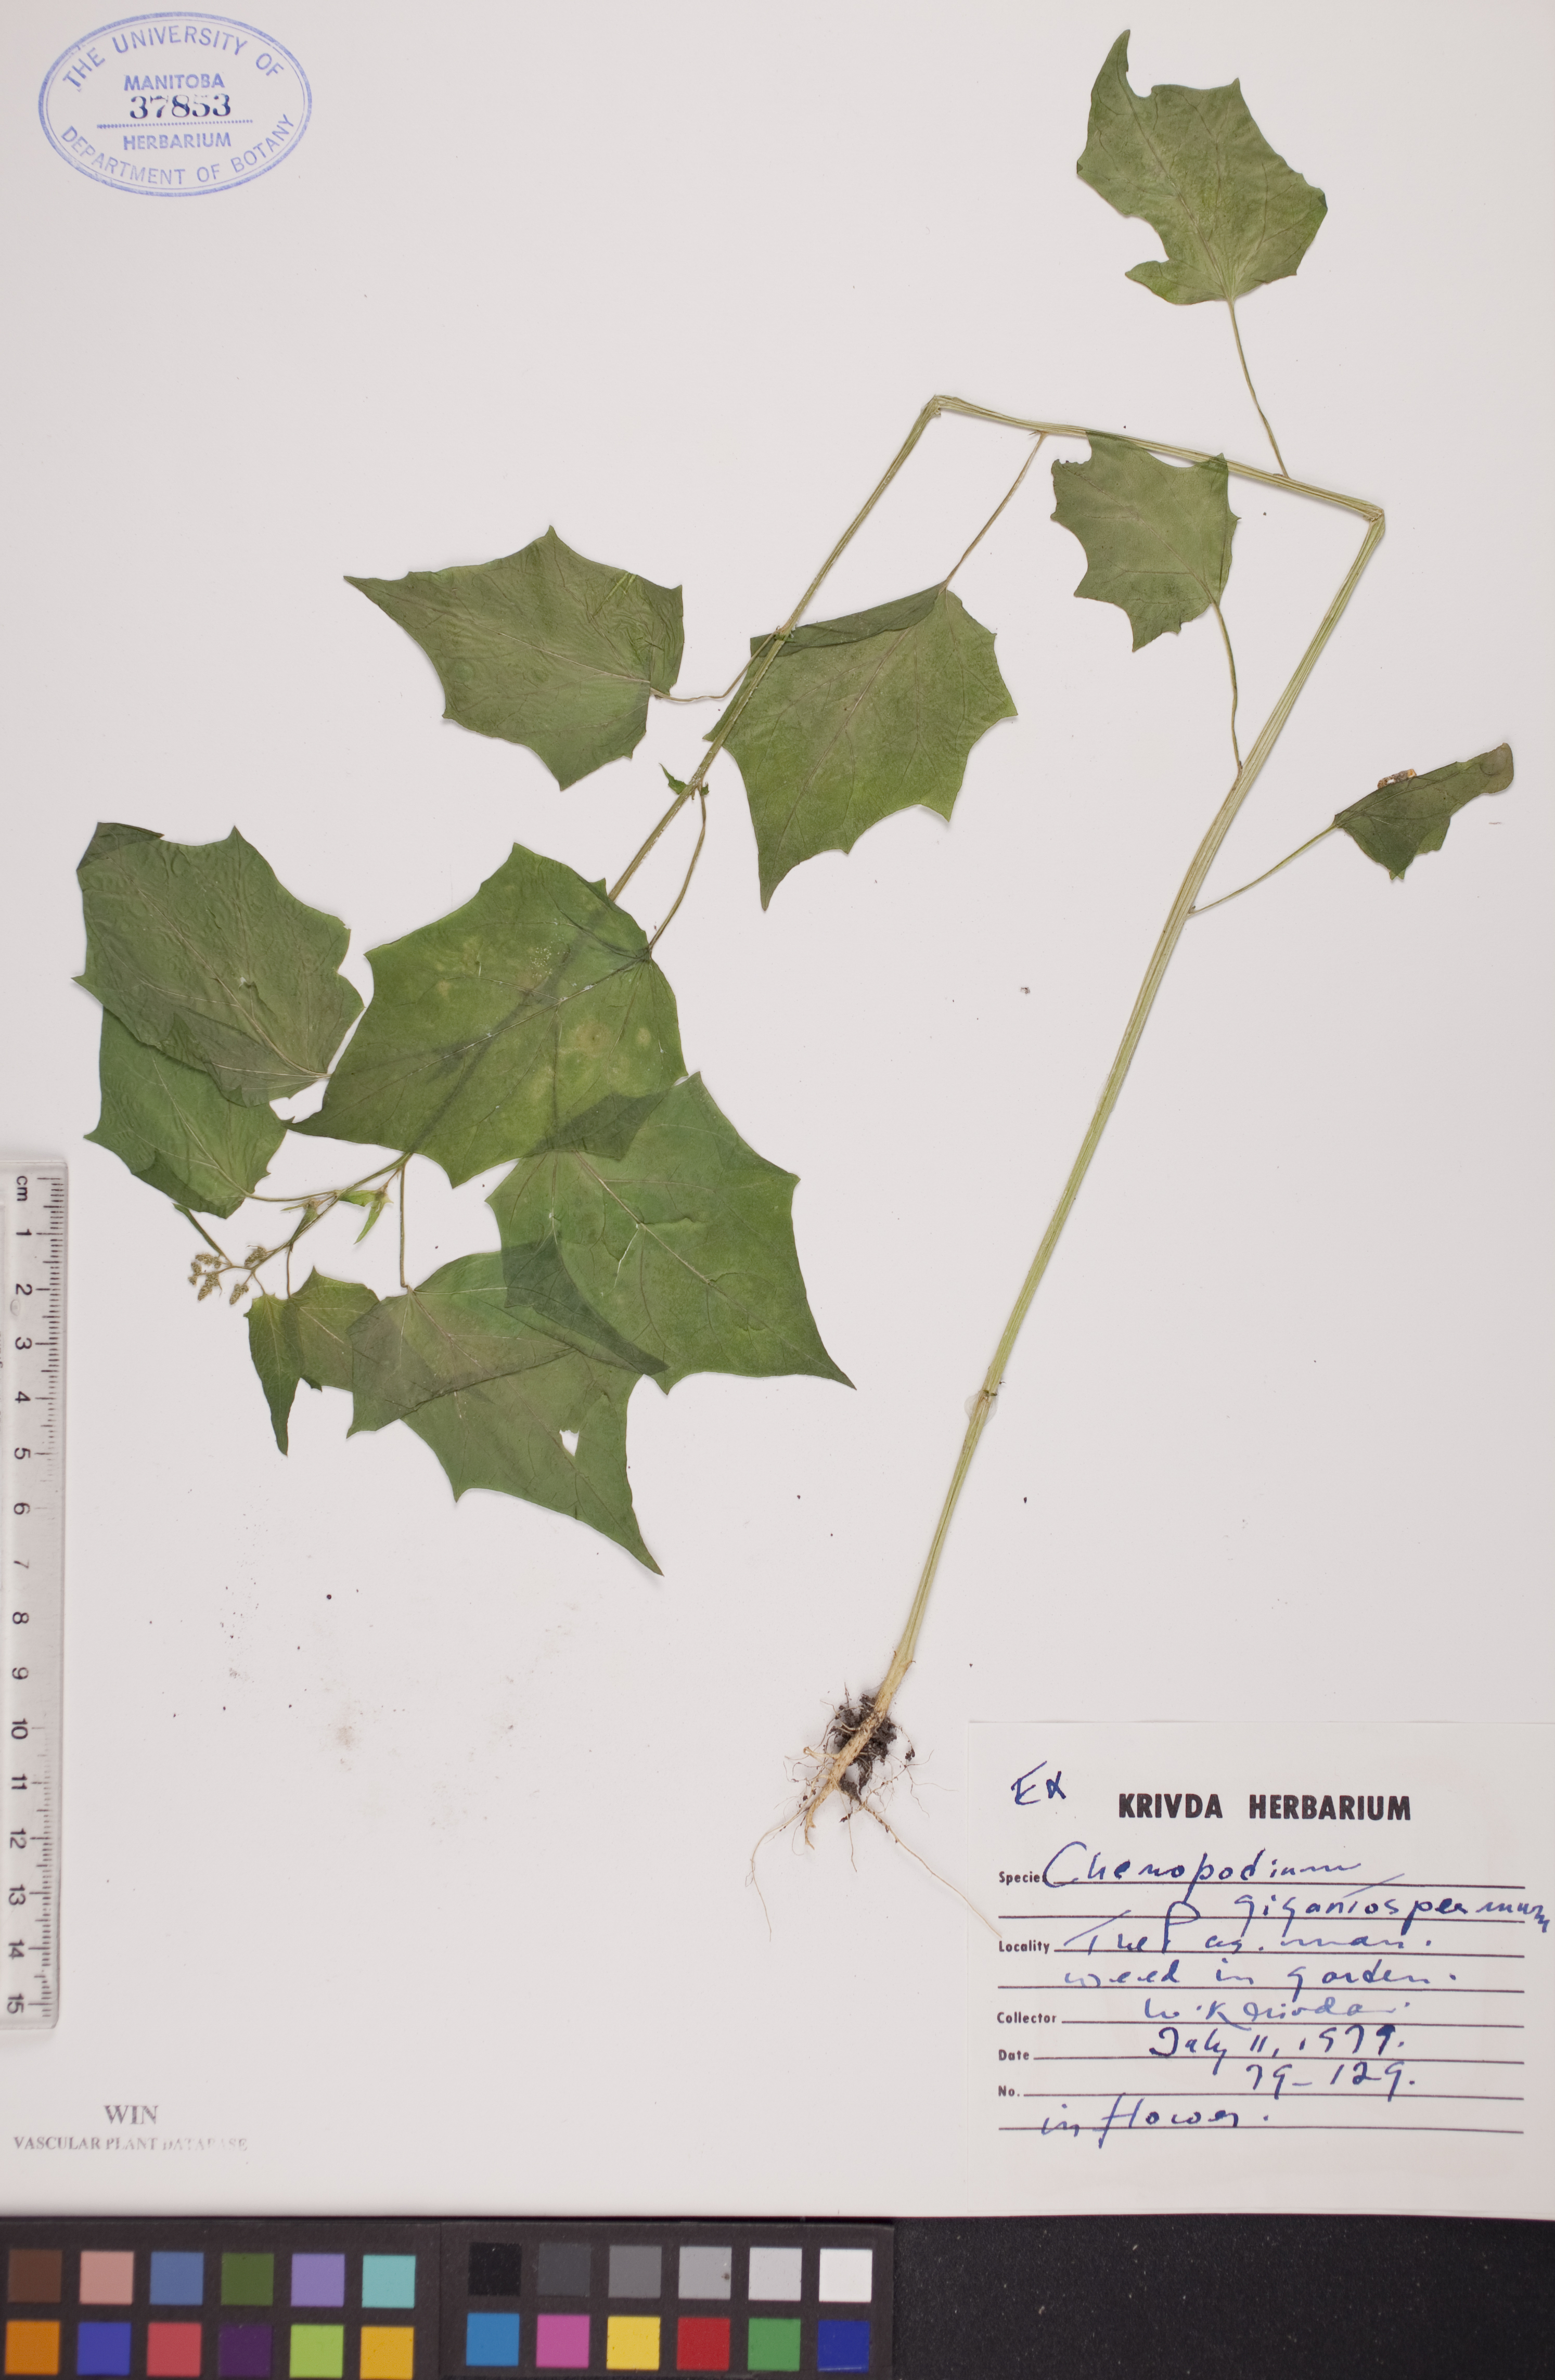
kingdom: Plantae
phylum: Tracheophyta
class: Magnoliopsida
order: Caryophyllales
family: Amaranthaceae
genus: Chenopodiastrum
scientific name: Chenopodiastrum simplex
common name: Large-seed goosefoot
